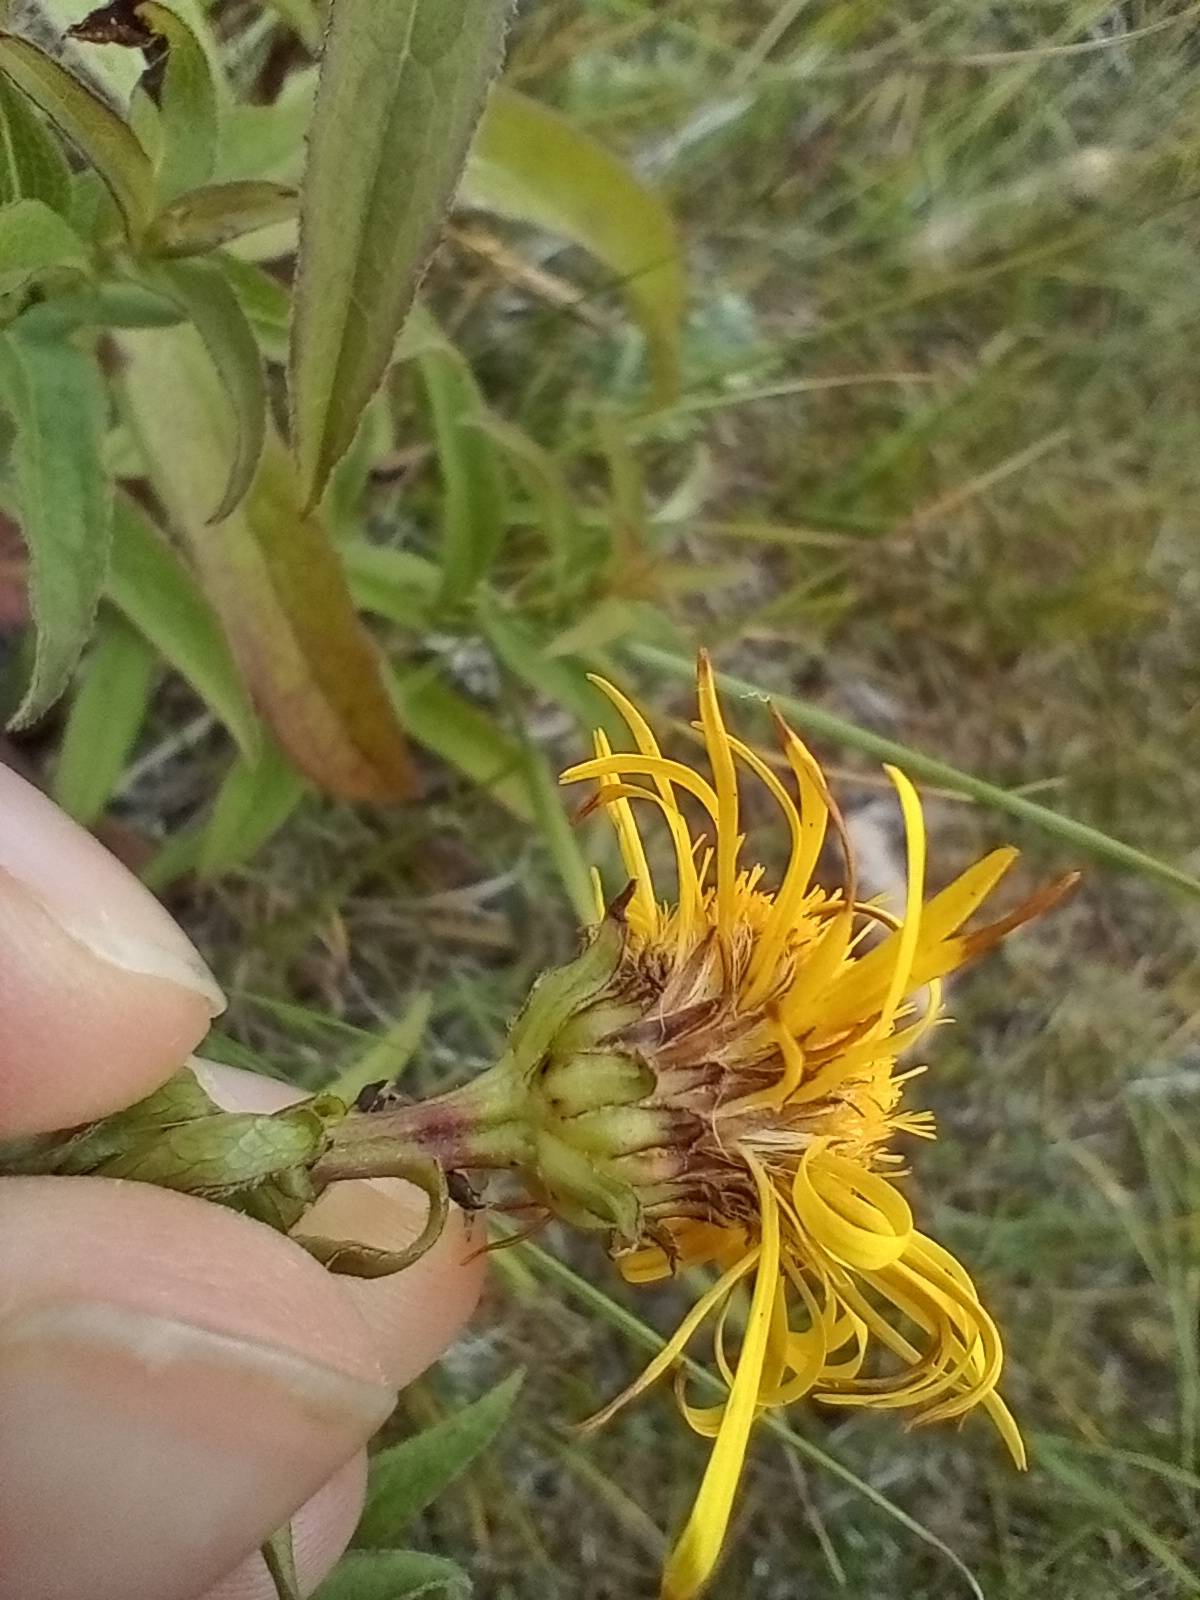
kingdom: Plantae
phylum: Tracheophyta
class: Magnoliopsida
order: Asterales
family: Asteraceae
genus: Pentanema
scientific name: Pentanema salicinum
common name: Pile-alant
